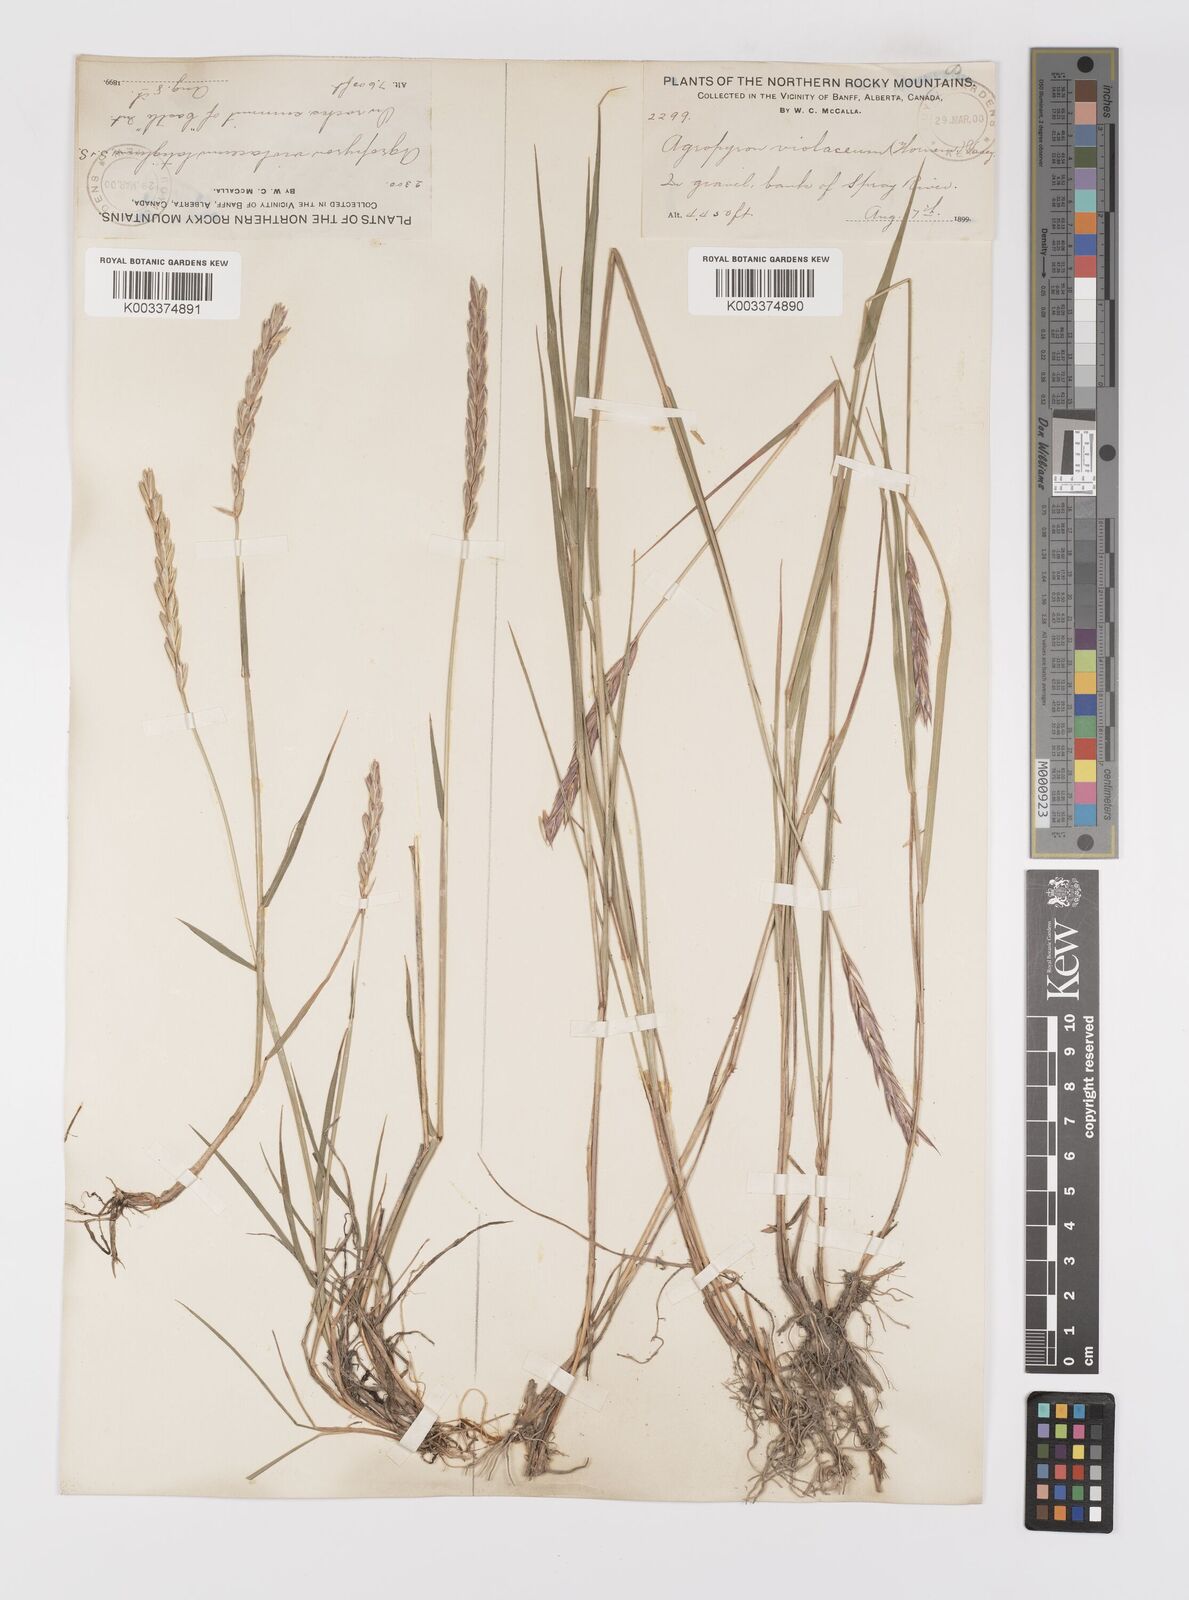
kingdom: Plantae
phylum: Tracheophyta
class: Liliopsida
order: Poales
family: Poaceae
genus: Elymus
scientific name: Elymus violaceus
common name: Arctic wheatgrass
